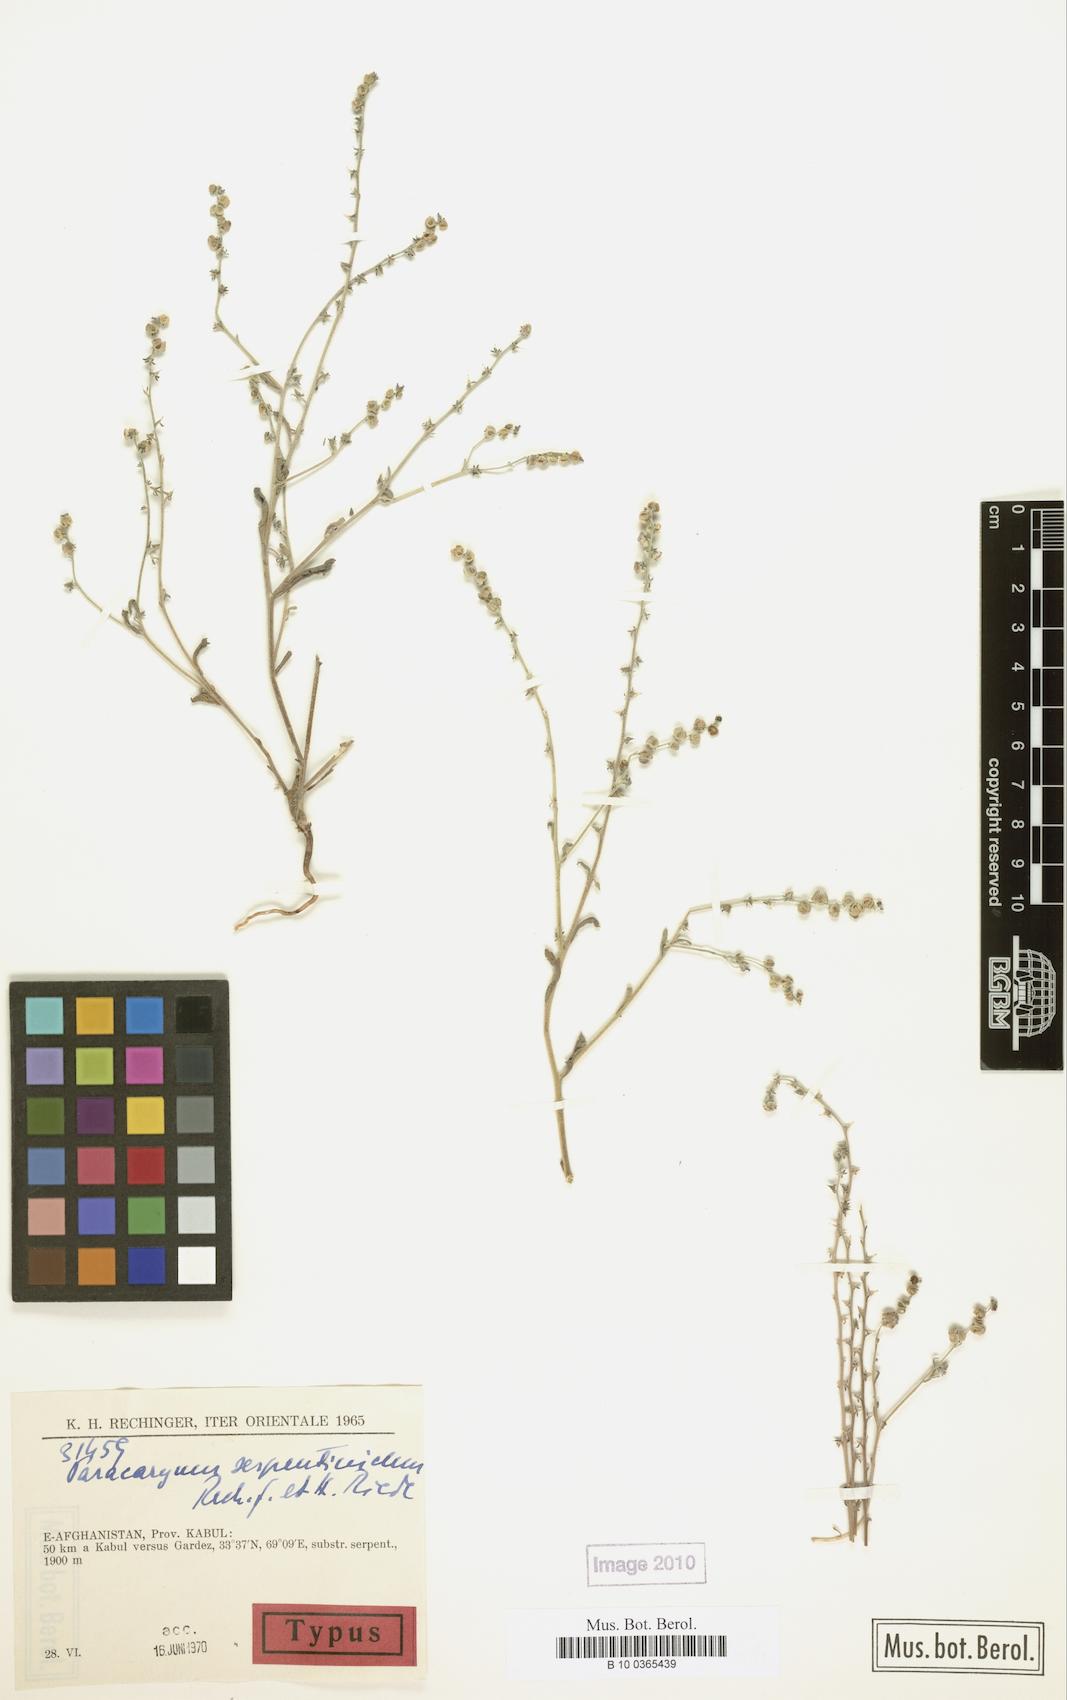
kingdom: Plantae
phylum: Tracheophyta
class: Magnoliopsida
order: Boraginales
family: Boraginaceae
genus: Microparacaryum
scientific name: Microparacaryum intermedium
